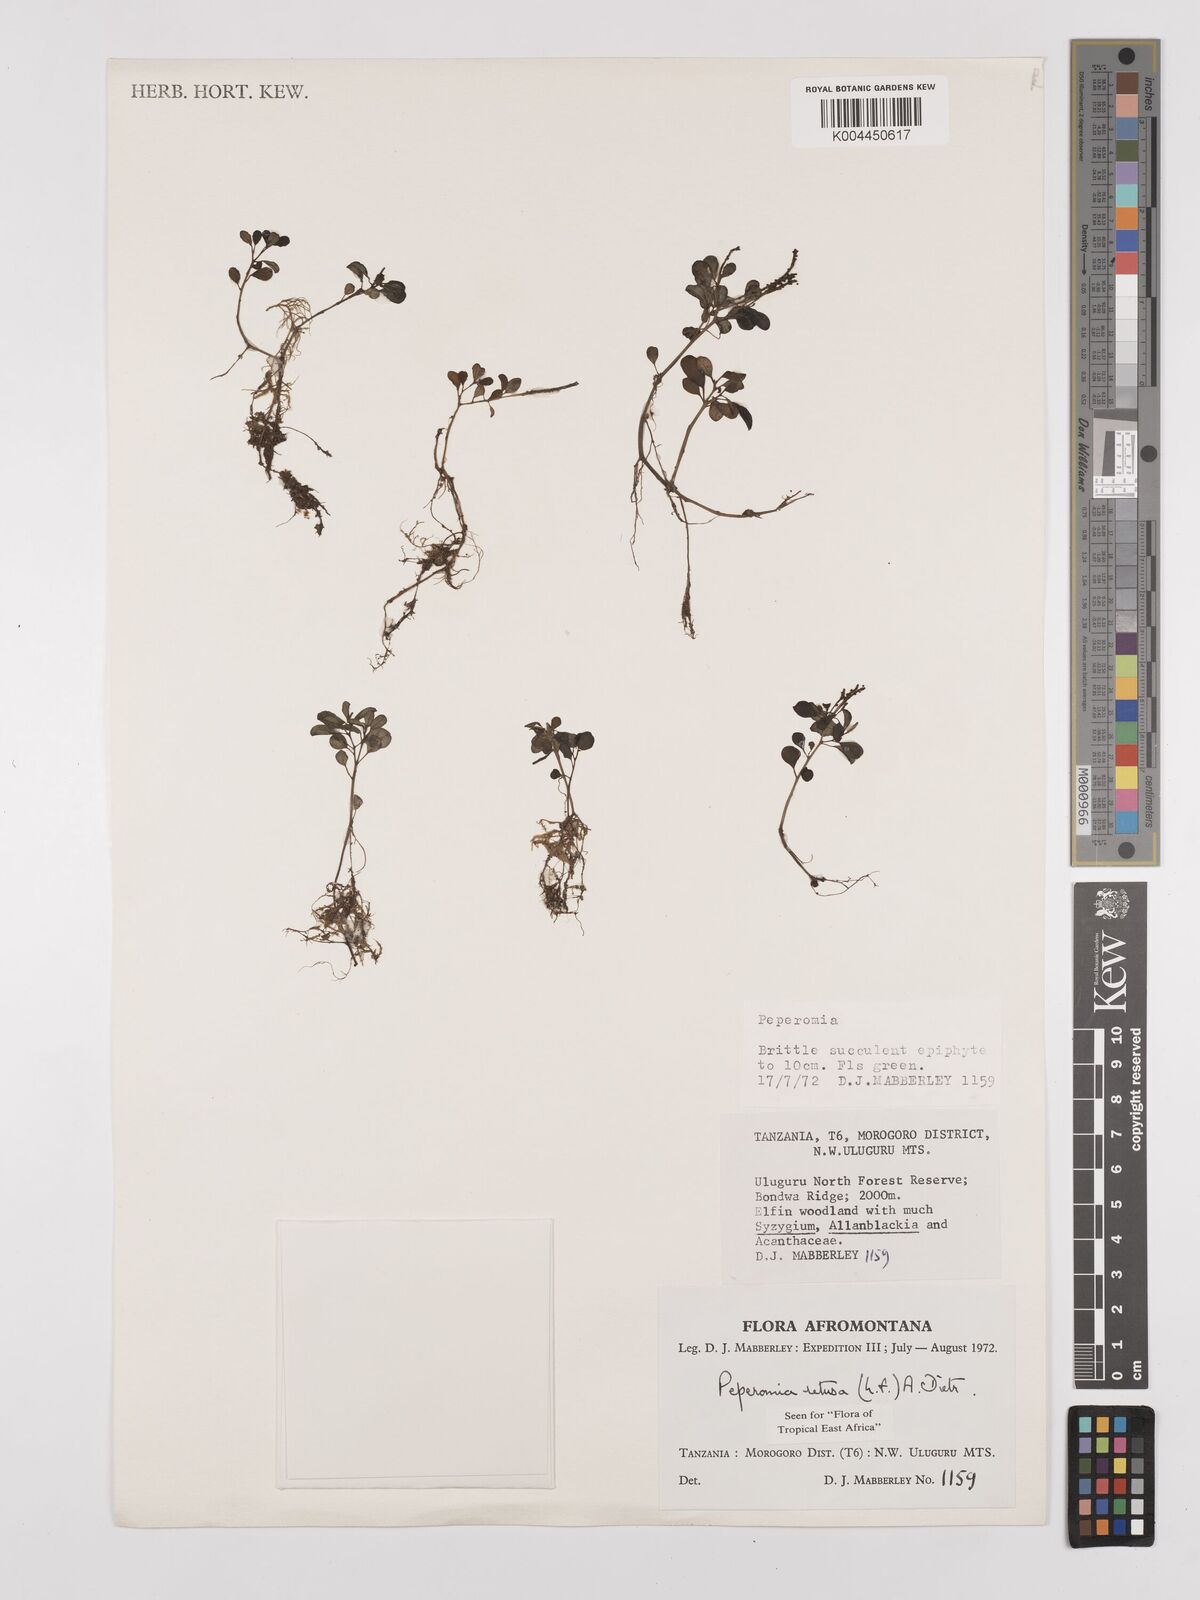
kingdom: Plantae
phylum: Tracheophyta
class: Magnoliopsida
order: Piperales
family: Piperaceae
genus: Peperomia
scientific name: Peperomia retusa
